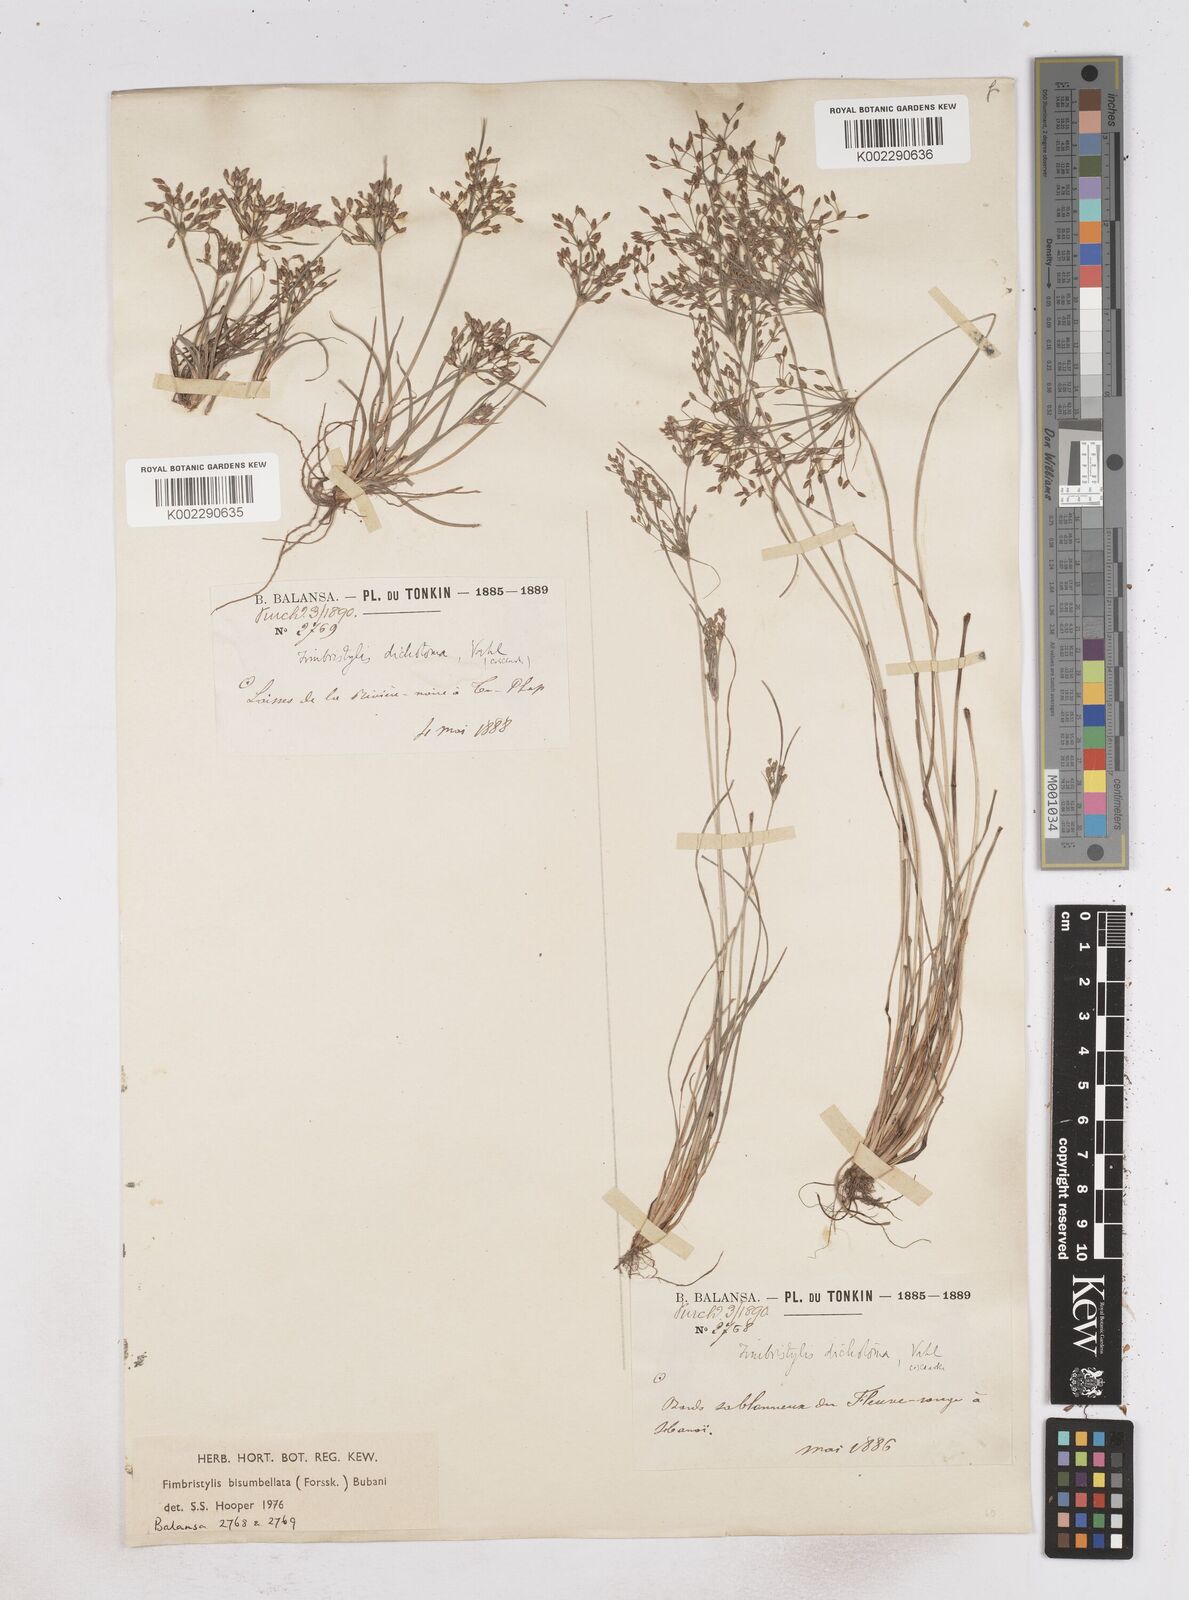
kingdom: Plantae
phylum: Tracheophyta
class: Liliopsida
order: Poales
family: Cyperaceae
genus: Fimbristylis
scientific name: Fimbristylis bisumbellata
